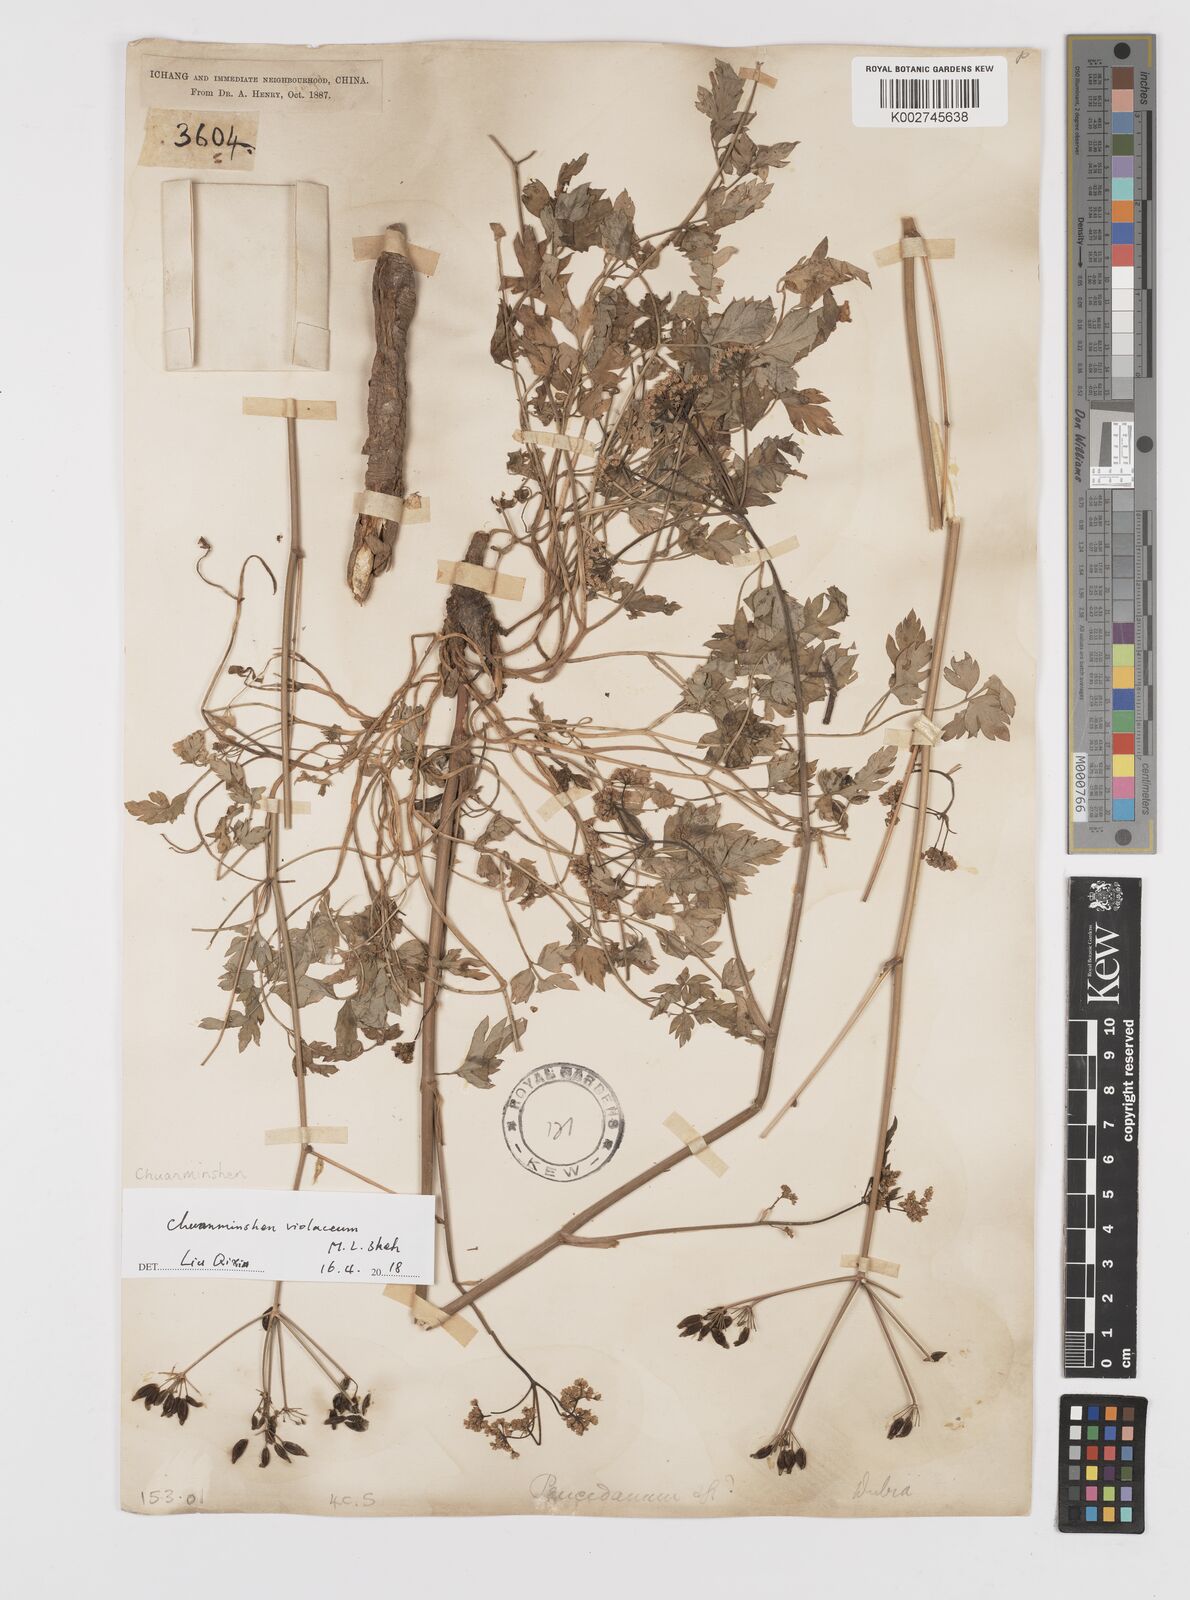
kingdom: Plantae
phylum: Tracheophyta
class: Magnoliopsida
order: Apiales
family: Apiaceae
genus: Chuanminshen
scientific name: Chuanminshen violaceum
